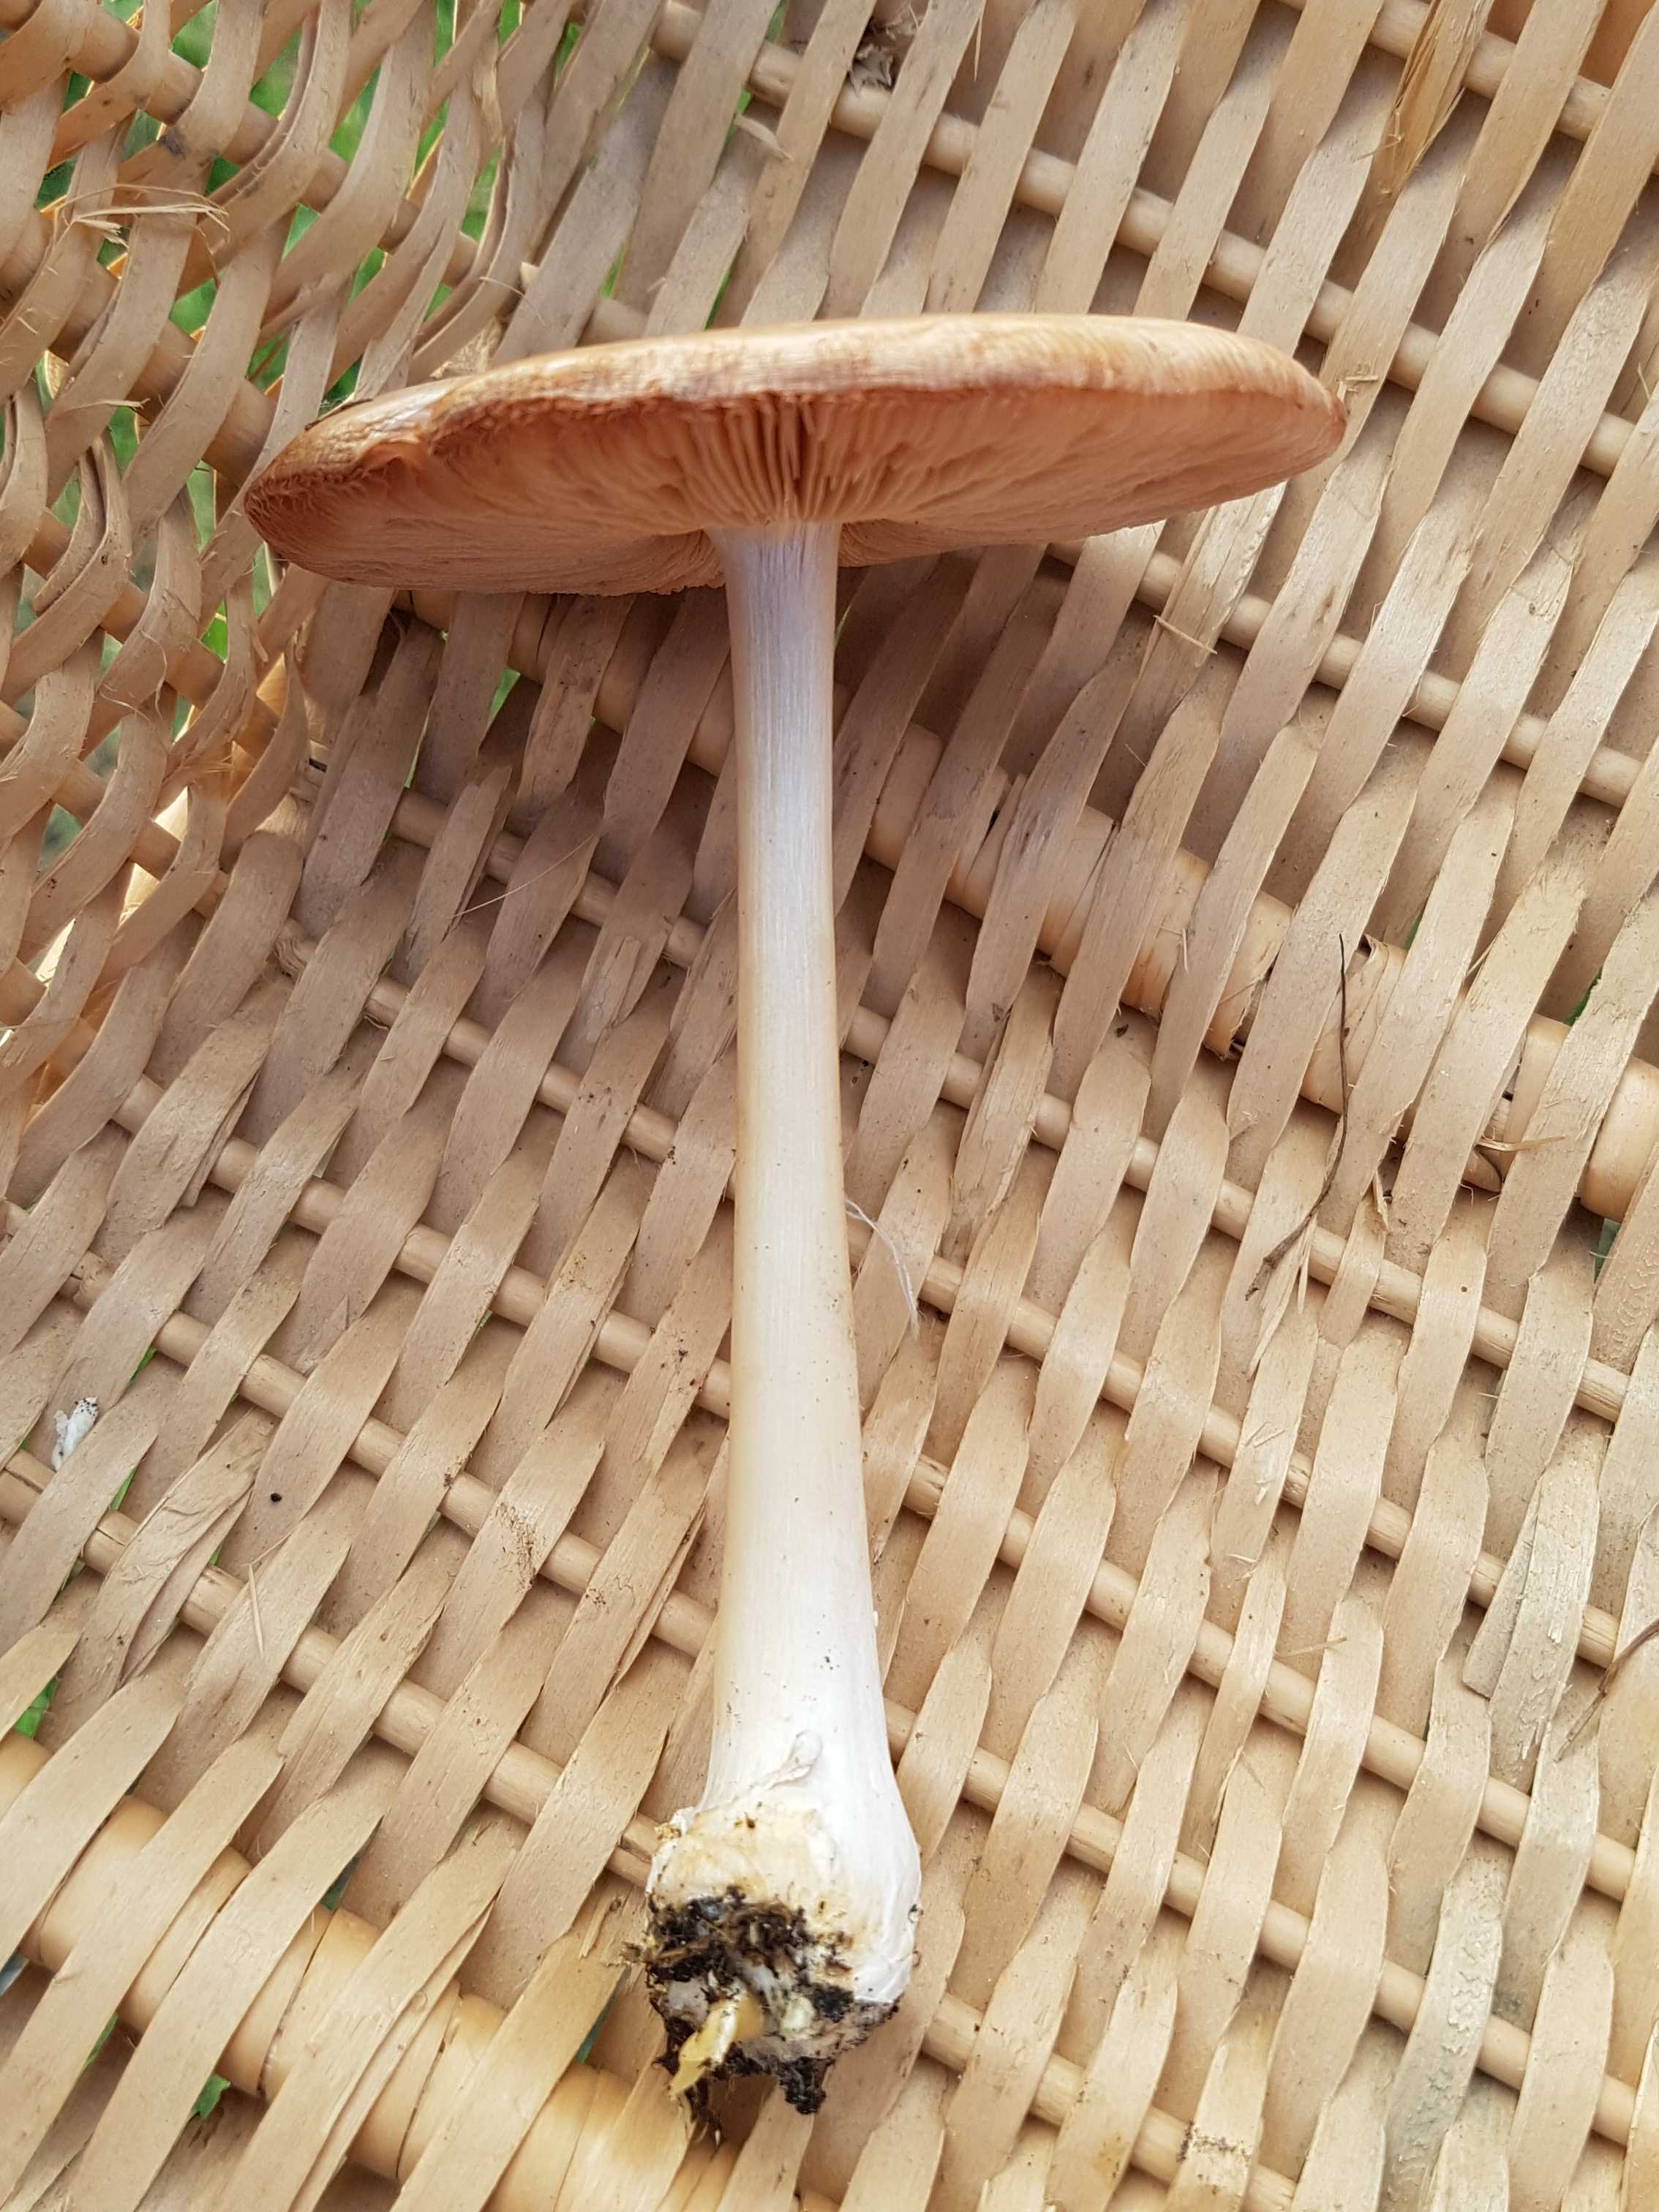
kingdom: Fungi
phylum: Basidiomycota
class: Agaricomycetes
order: Agaricales
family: Pluteaceae
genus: Volvopluteus
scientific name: Volvopluteus gloiocephalus
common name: høj posesvamp
